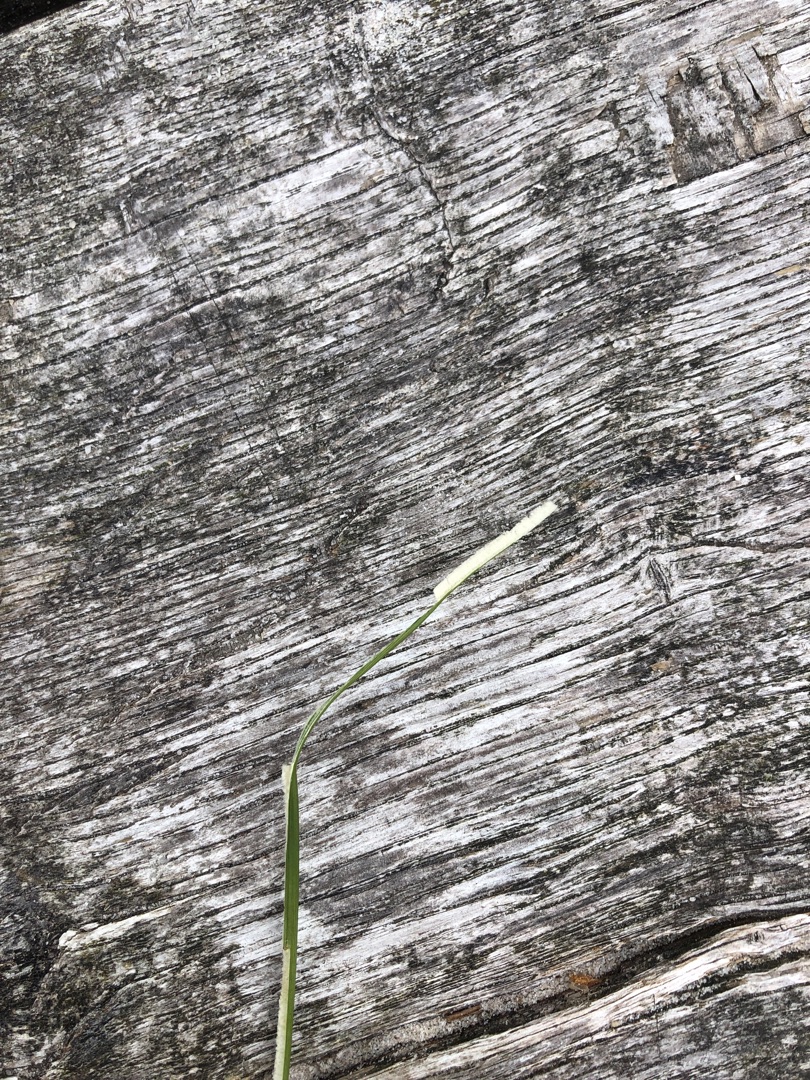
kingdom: Plantae
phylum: Tracheophyta
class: Liliopsida
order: Poales
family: Juncaceae
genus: Juncus
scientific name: Juncus effusus
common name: Lyse-siv
